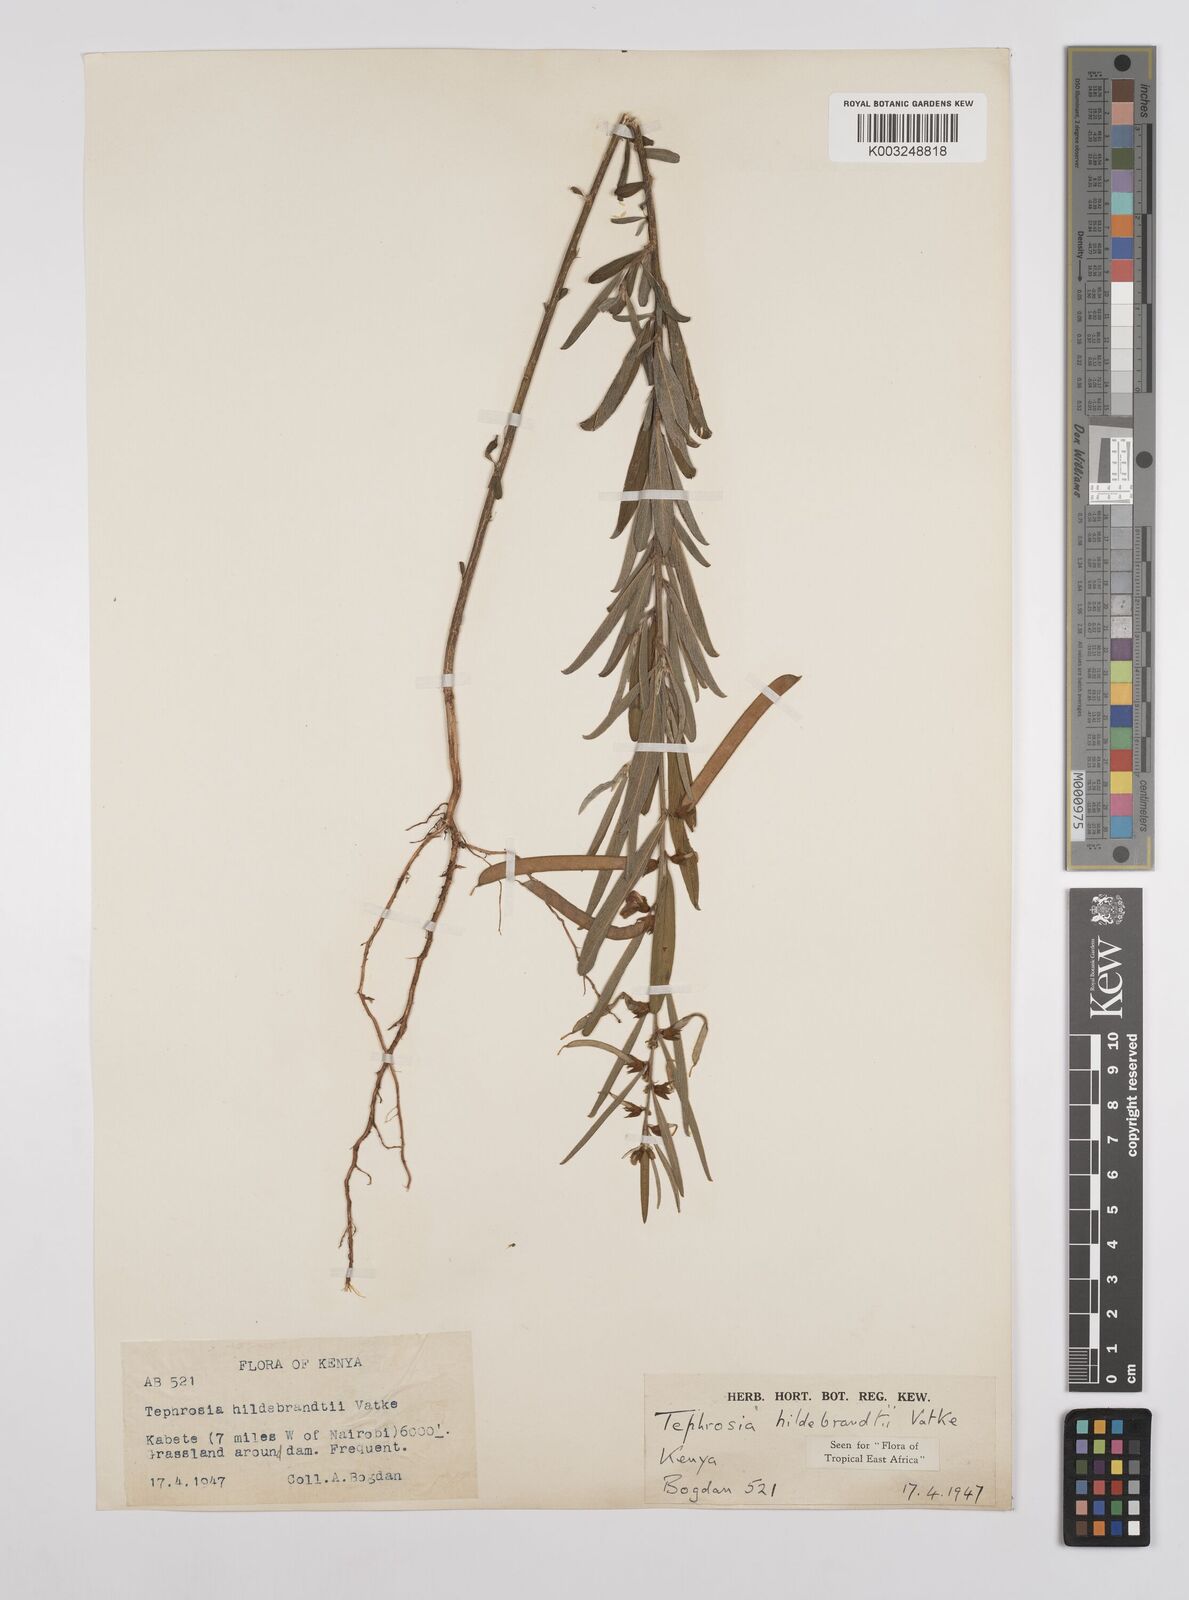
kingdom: Plantae
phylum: Tracheophyta
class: Magnoliopsida
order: Fabales
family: Fabaceae
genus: Tephrosia
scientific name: Tephrosia hildebrandtii
